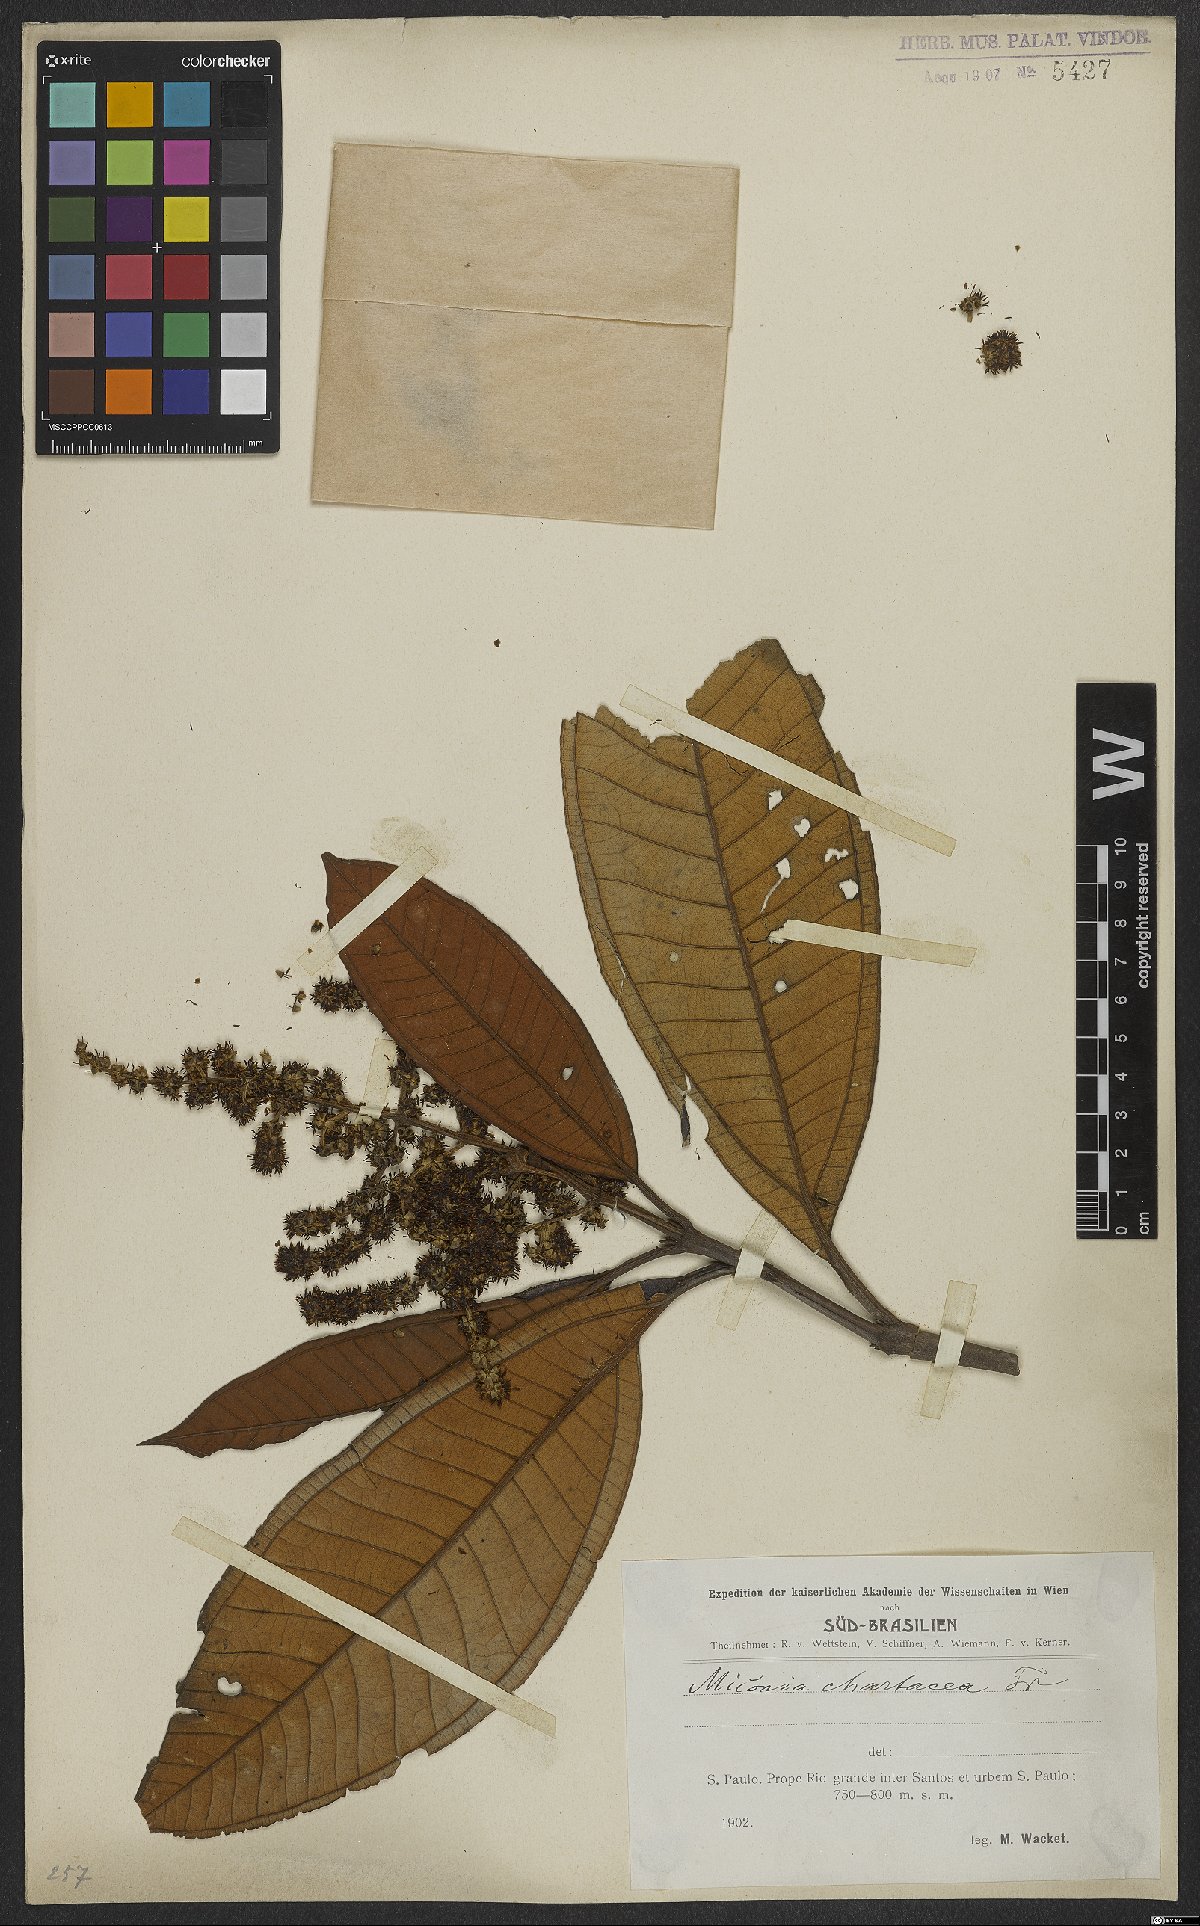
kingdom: Plantae
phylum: Tracheophyta
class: Magnoliopsida
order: Myrtales
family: Melastomataceae
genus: Miconia
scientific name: Miconia chartacea
